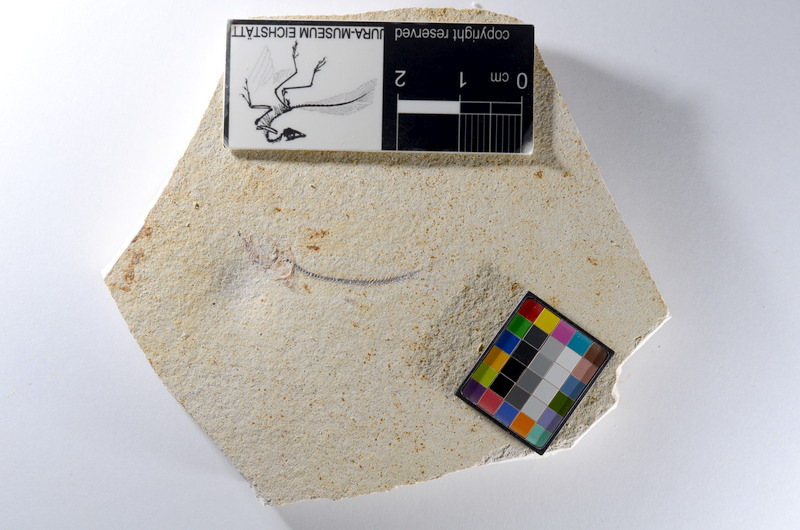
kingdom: Animalia
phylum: Chordata
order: Salmoniformes
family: Orthogonikleithridae
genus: Orthogonikleithrus
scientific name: Orthogonikleithrus hoelli
